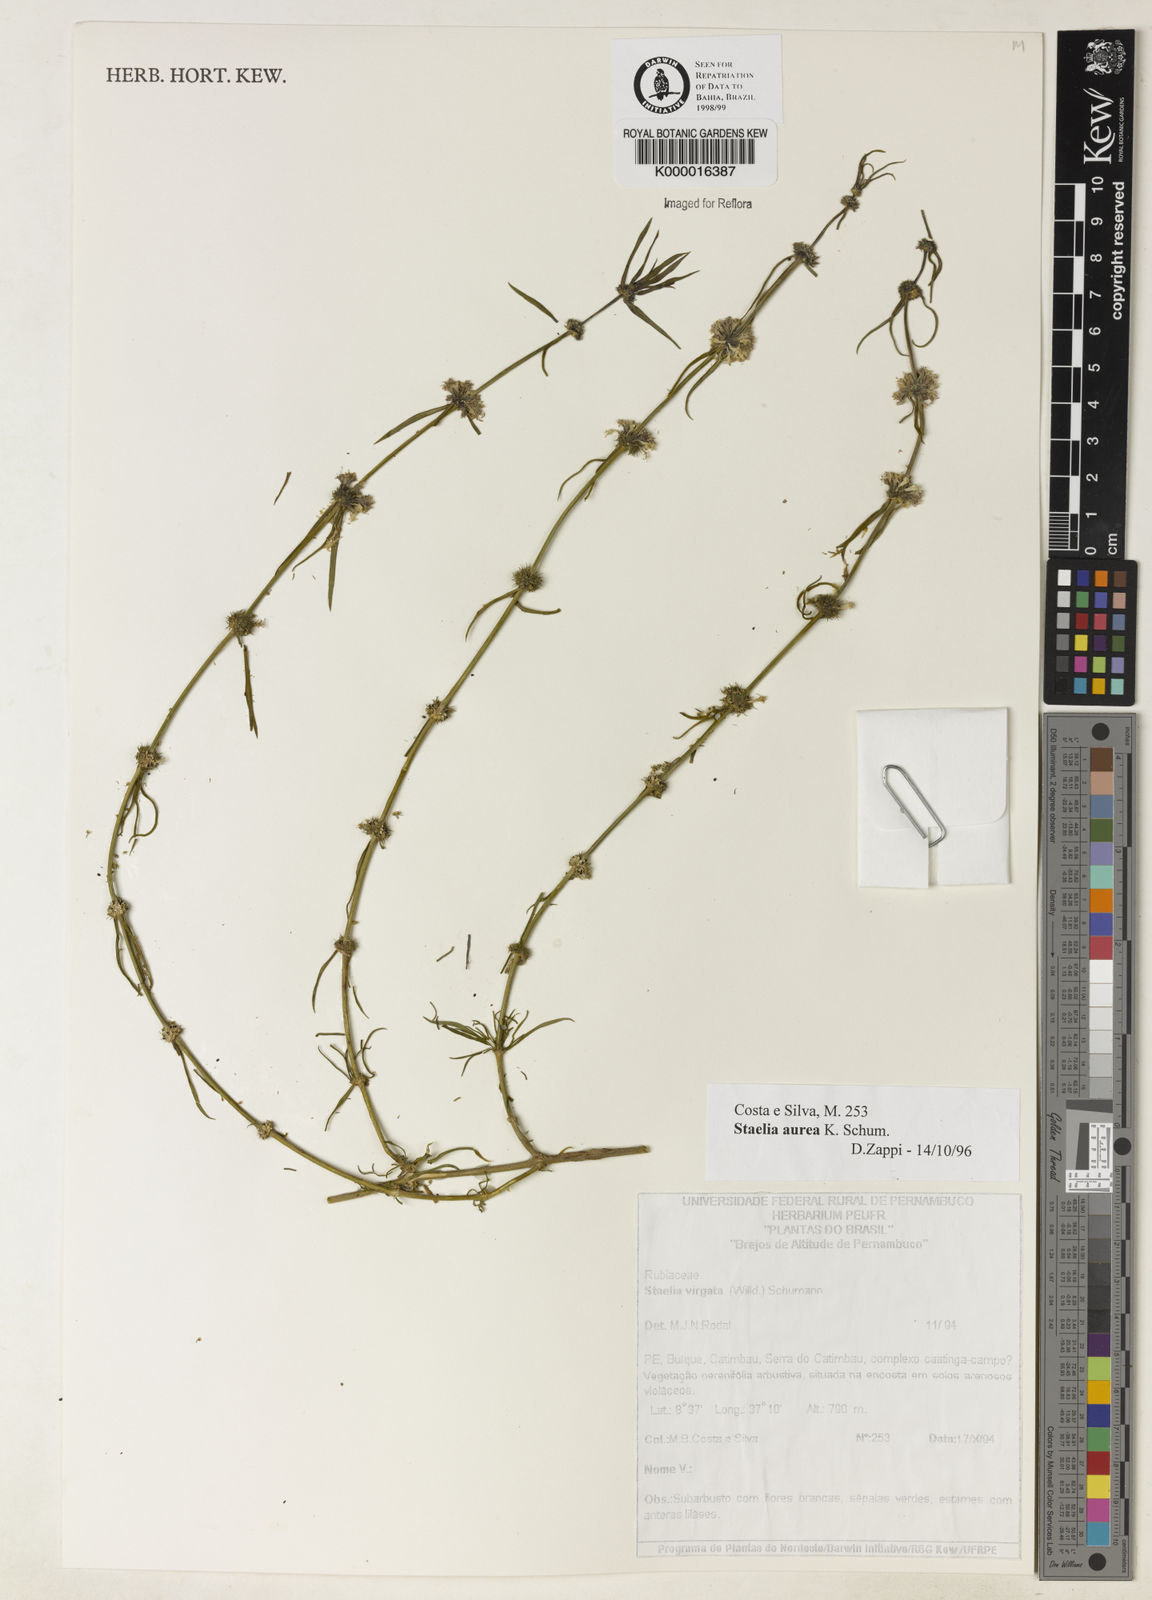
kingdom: Plantae
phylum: Tracheophyta
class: Magnoliopsida
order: Gentianales
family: Rubiaceae
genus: Staelia
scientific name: Staelia aurea
